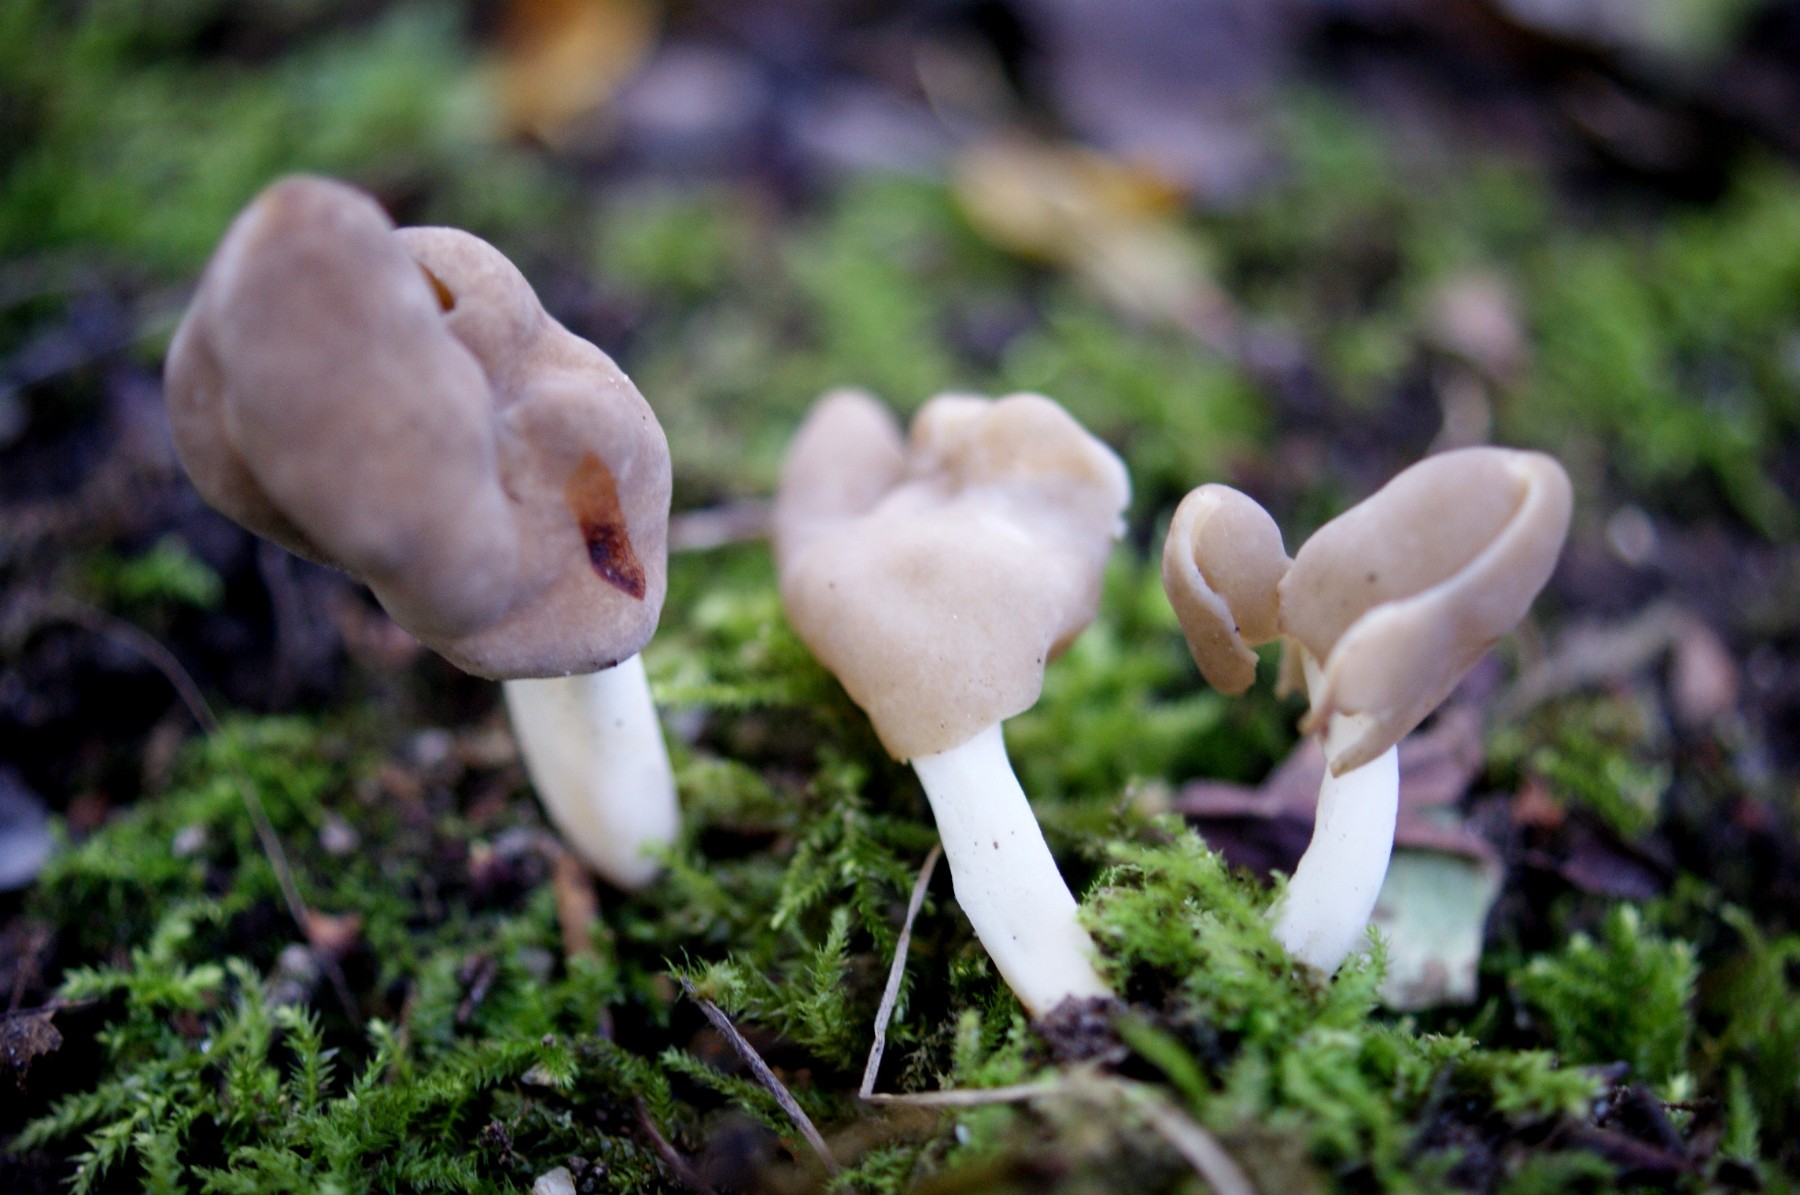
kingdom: Fungi
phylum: Ascomycota
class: Pezizomycetes
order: Pezizales
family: Helvellaceae
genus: Helvella
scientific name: Helvella elastica
